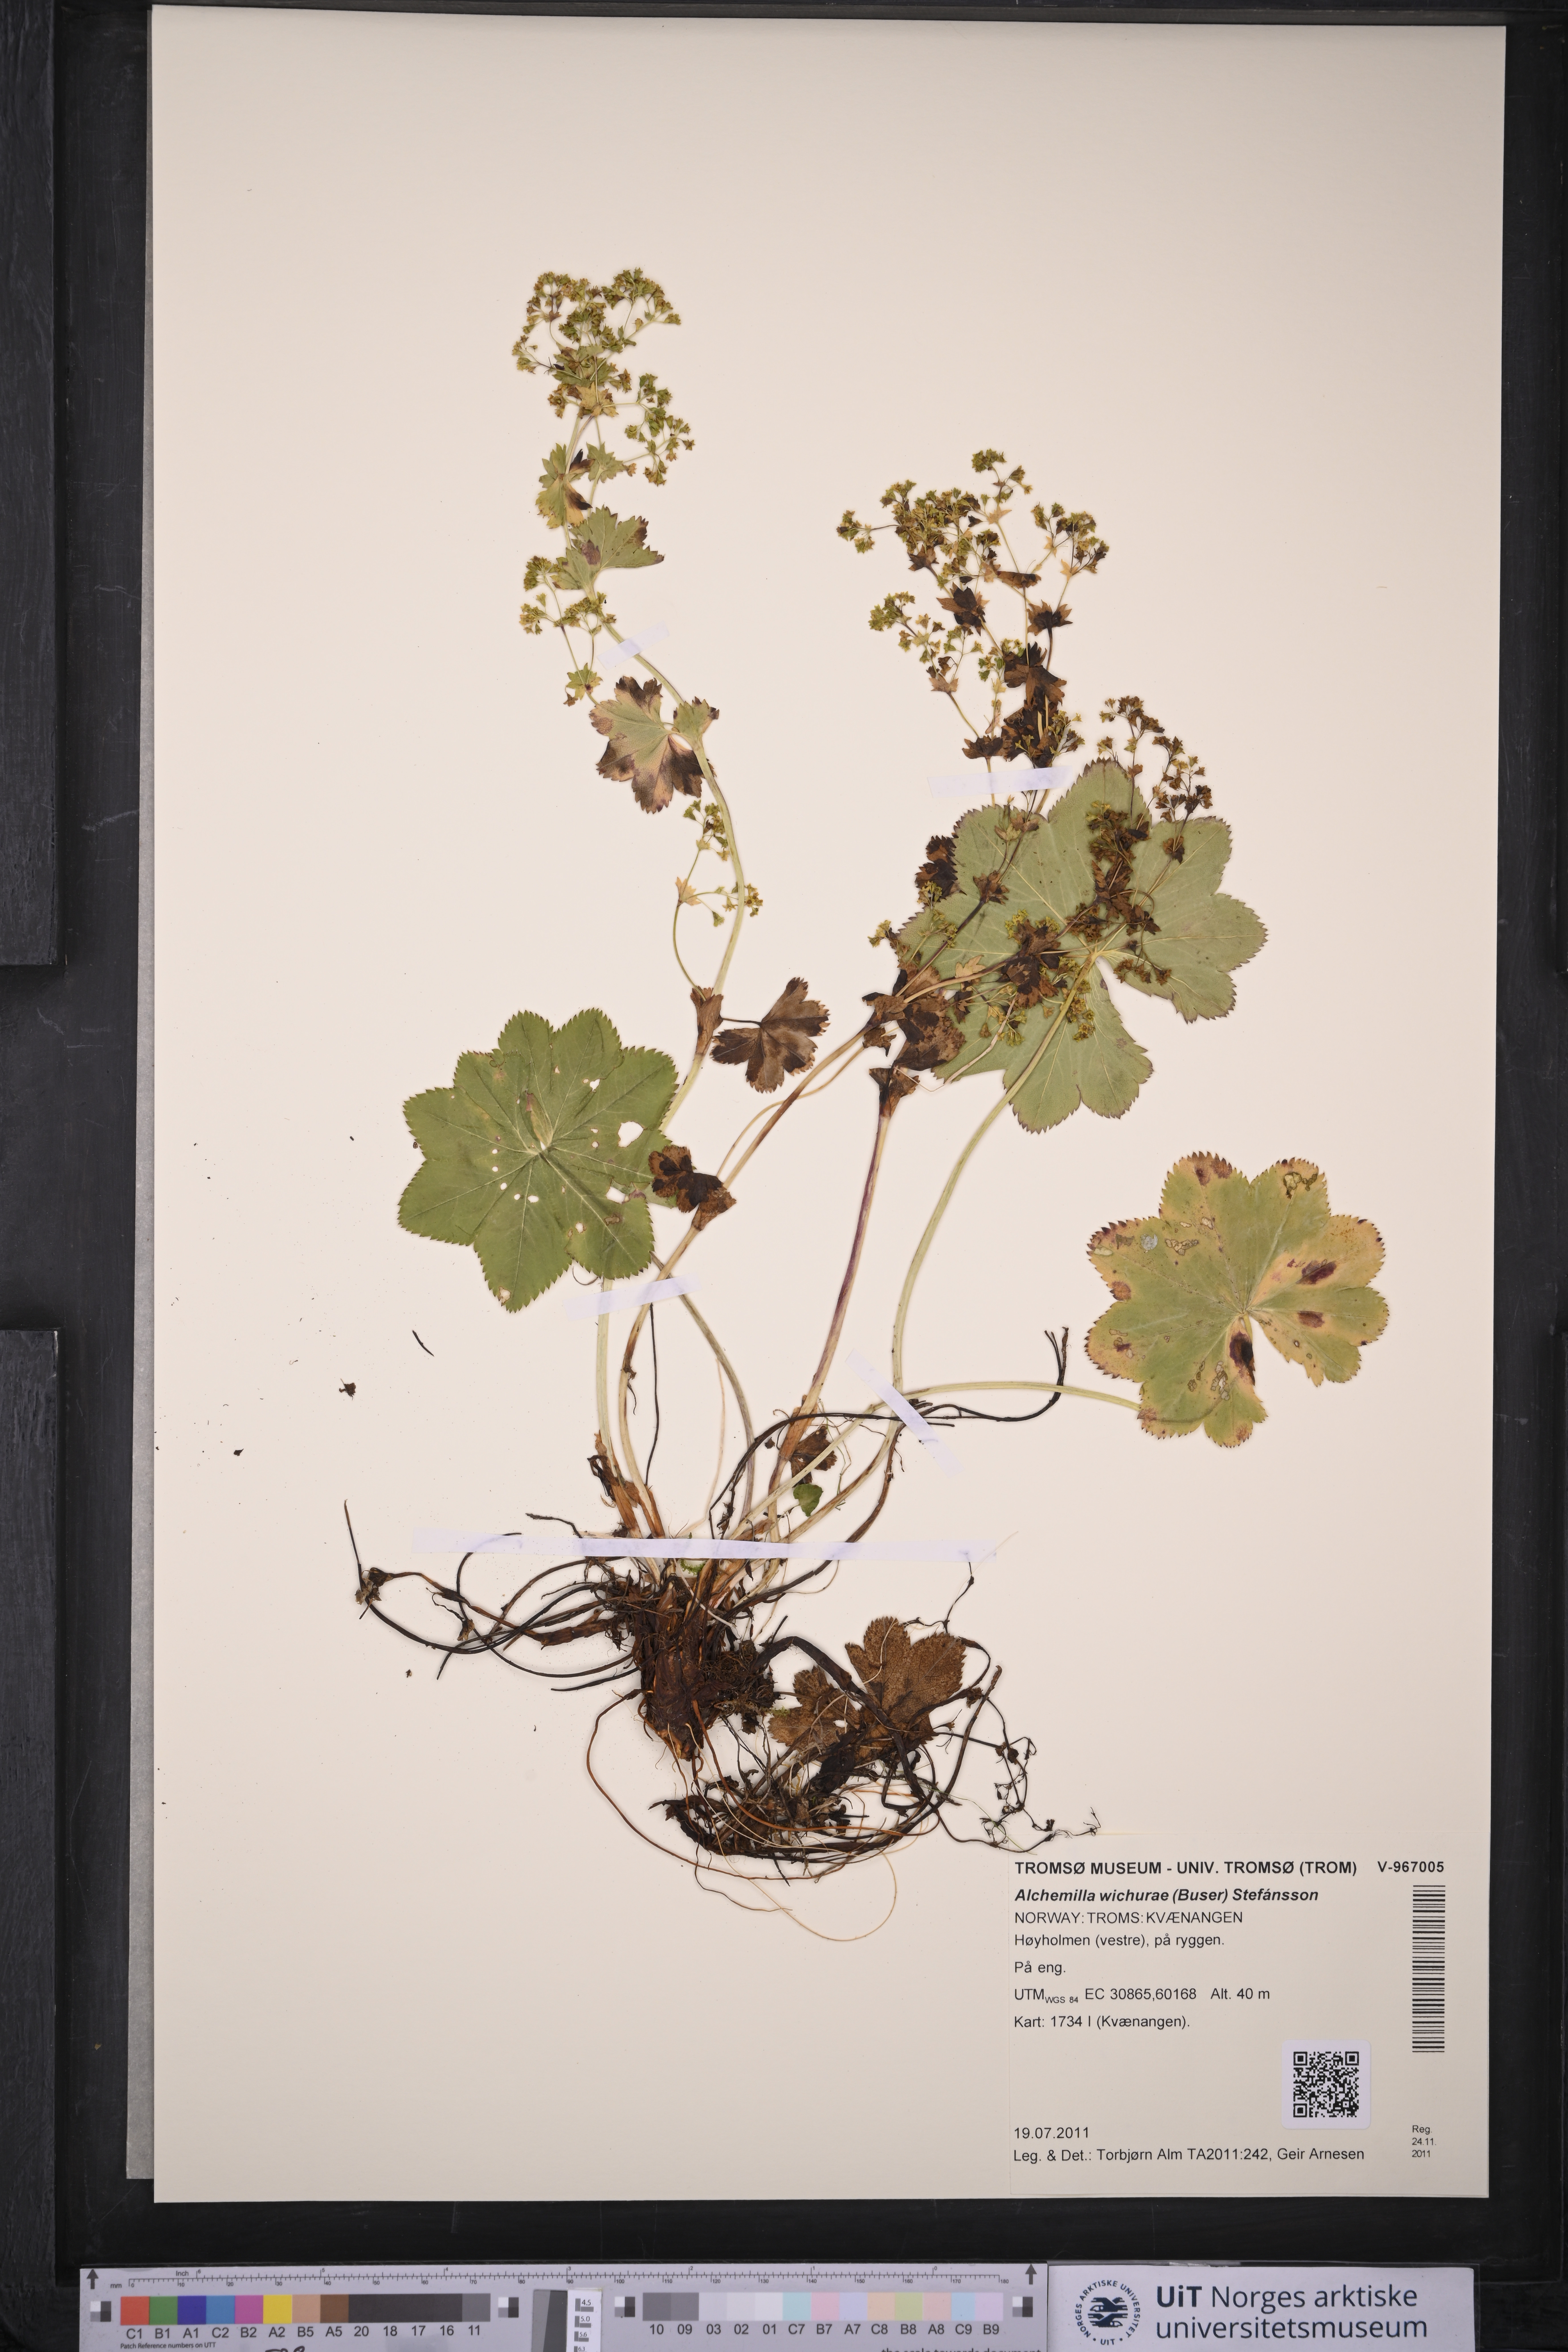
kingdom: Plantae
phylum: Tracheophyta
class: Magnoliopsida
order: Rosales
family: Rosaceae
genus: Alchemilla
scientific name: Alchemilla wichurae
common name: Rock lady's mantle
